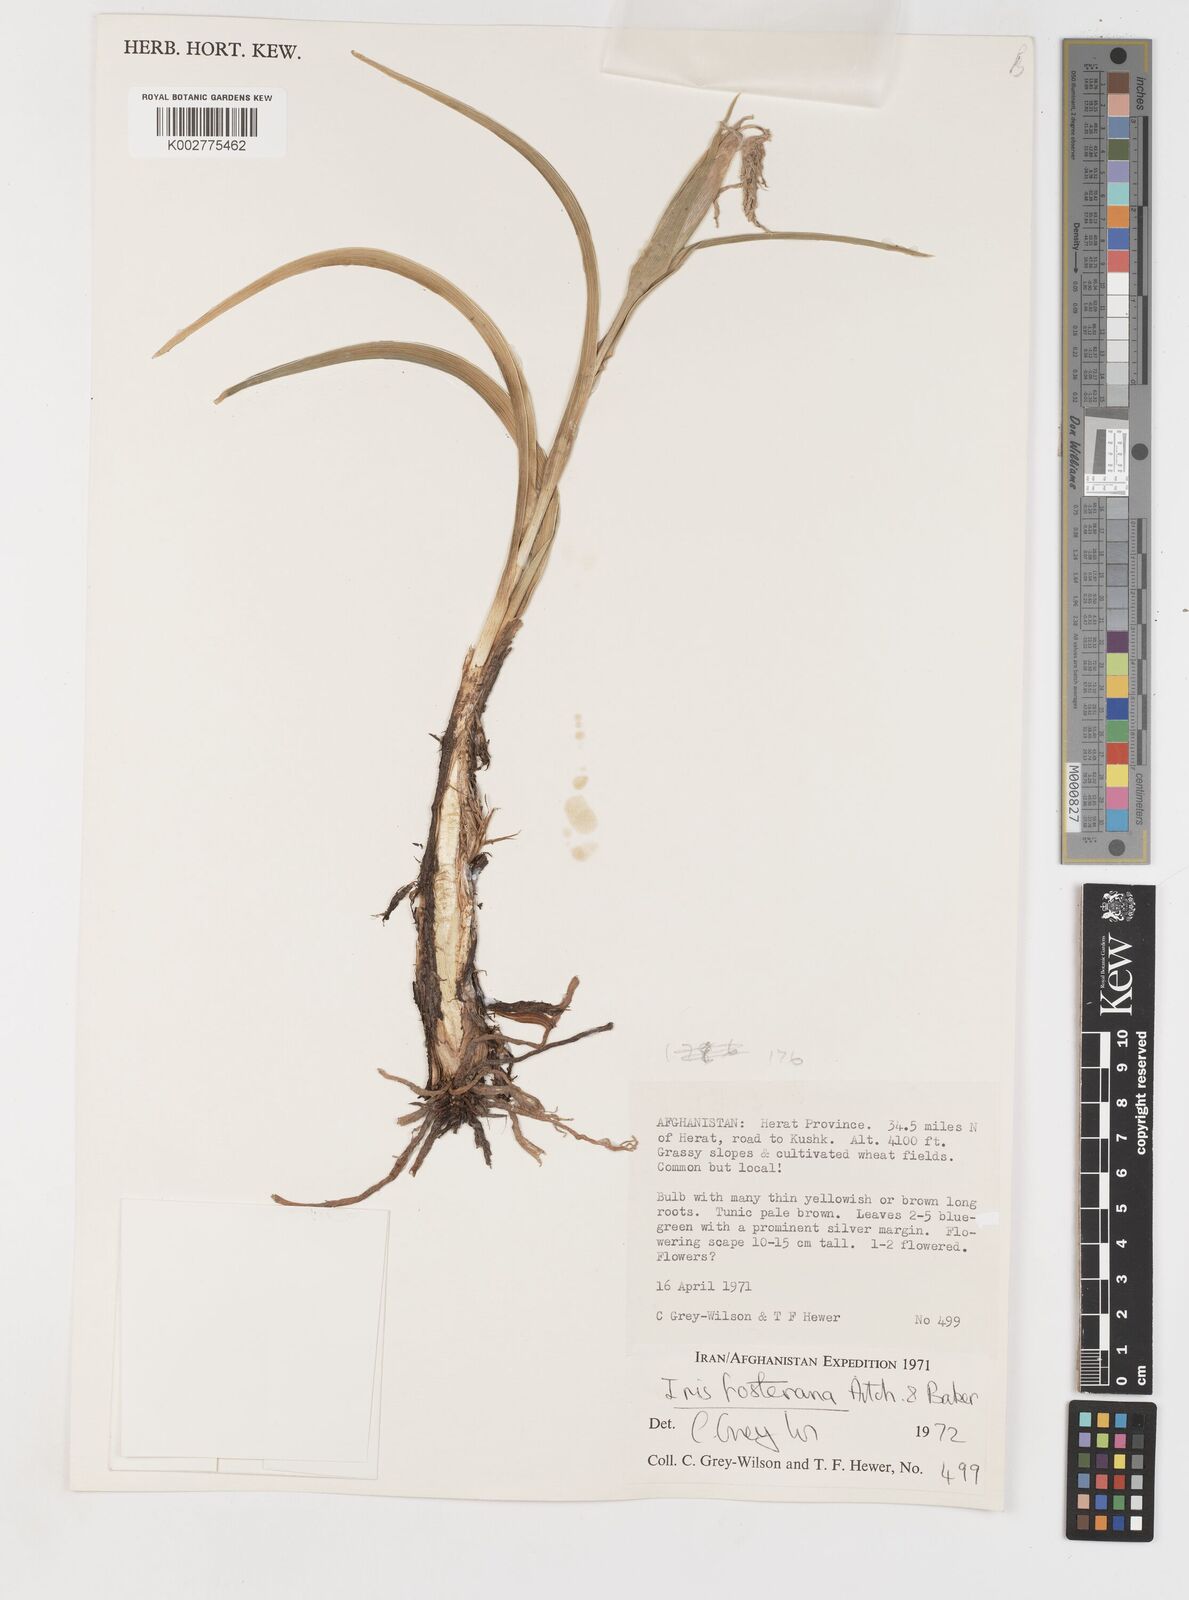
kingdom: Plantae
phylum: Tracheophyta
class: Liliopsida
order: Asparagales
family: Iridaceae
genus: Iris
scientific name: Iris fosteriana
